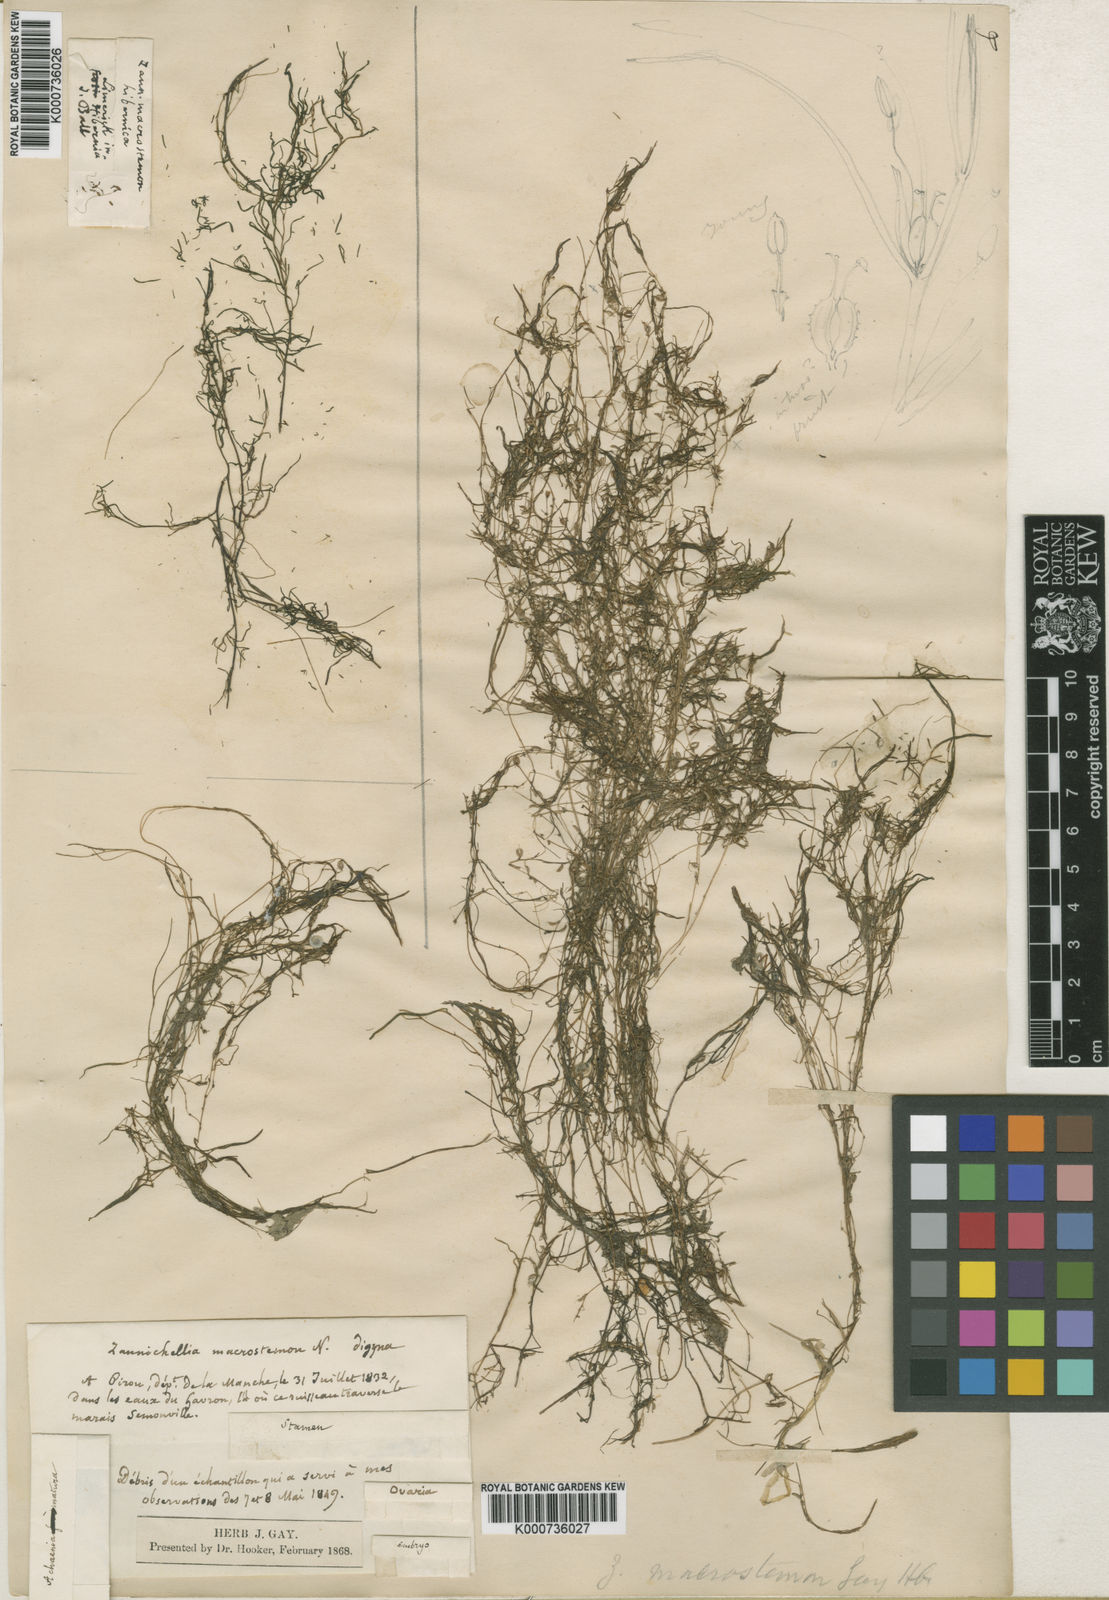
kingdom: Plantae
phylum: Tracheophyta
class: Liliopsida
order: Alismatales
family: Potamogetonaceae
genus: Zannichellia
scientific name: Zannichellia palustris
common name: Horned pondweed
